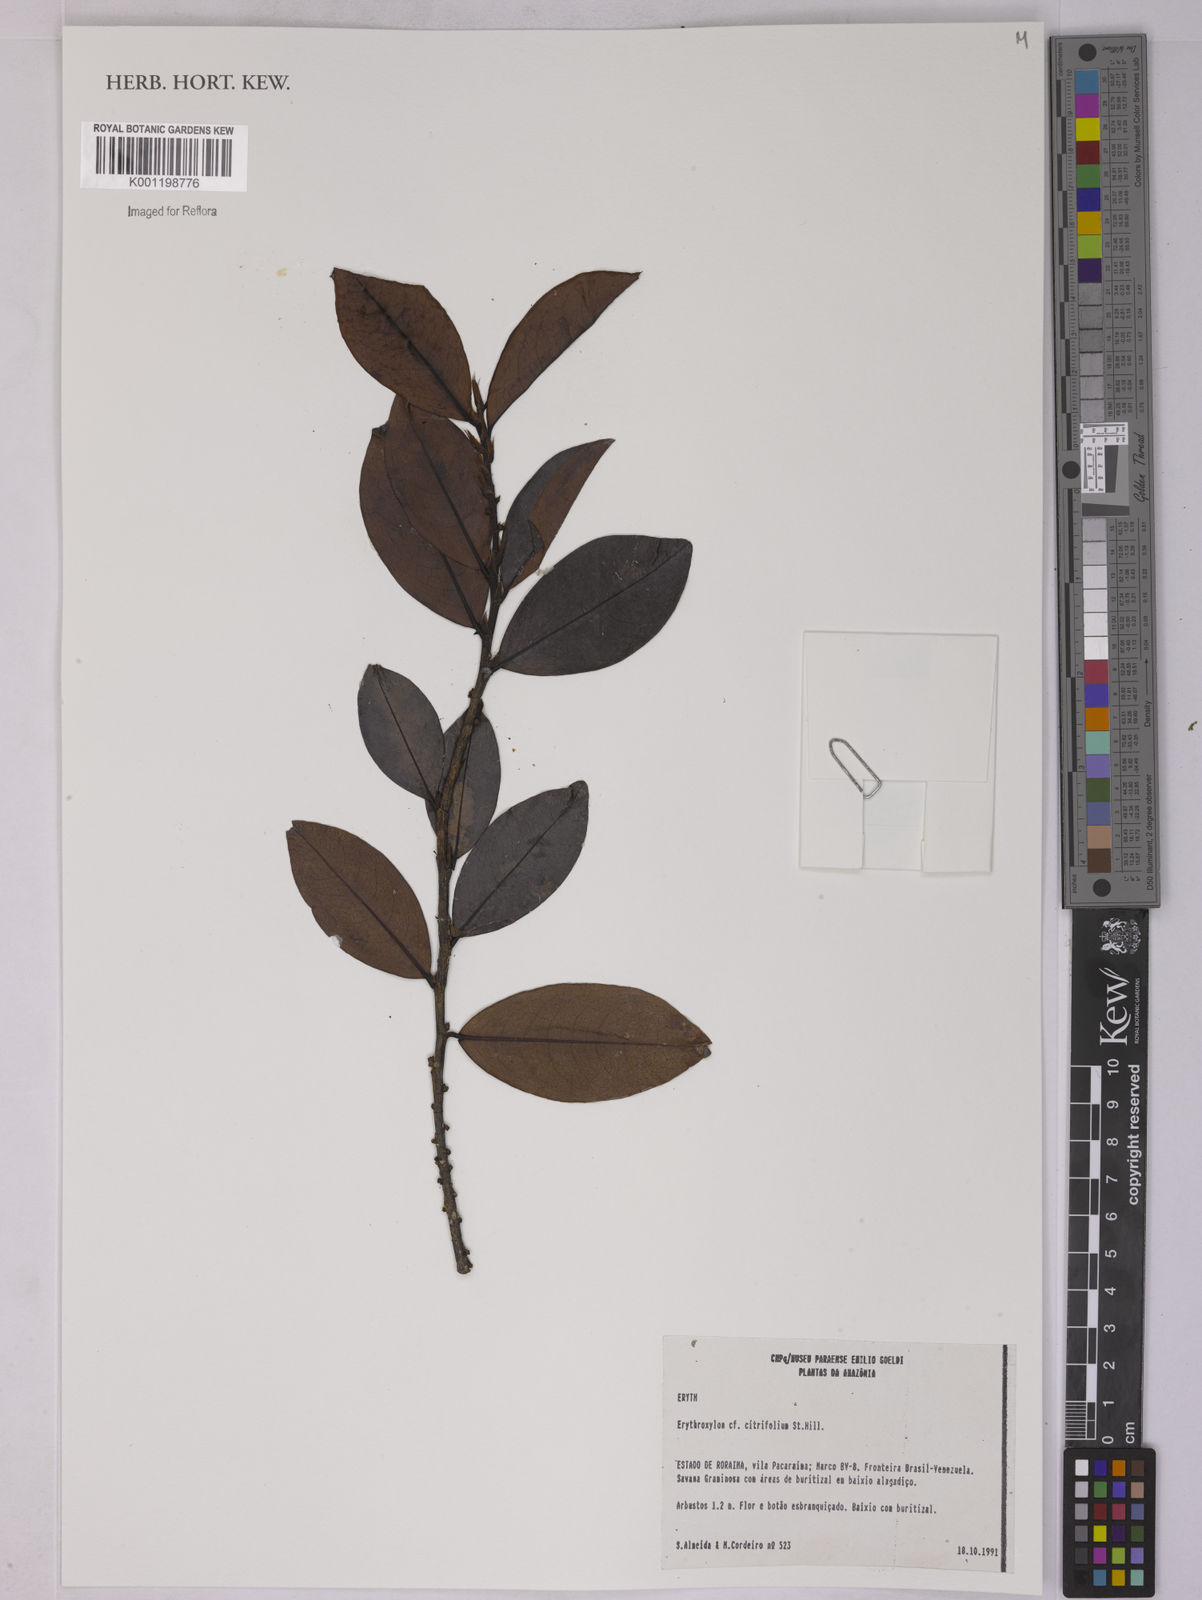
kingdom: Plantae
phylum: Tracheophyta
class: Magnoliopsida
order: Malpighiales
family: Erythroxylaceae
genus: Erythroxylum
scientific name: Erythroxylum citrifolium
